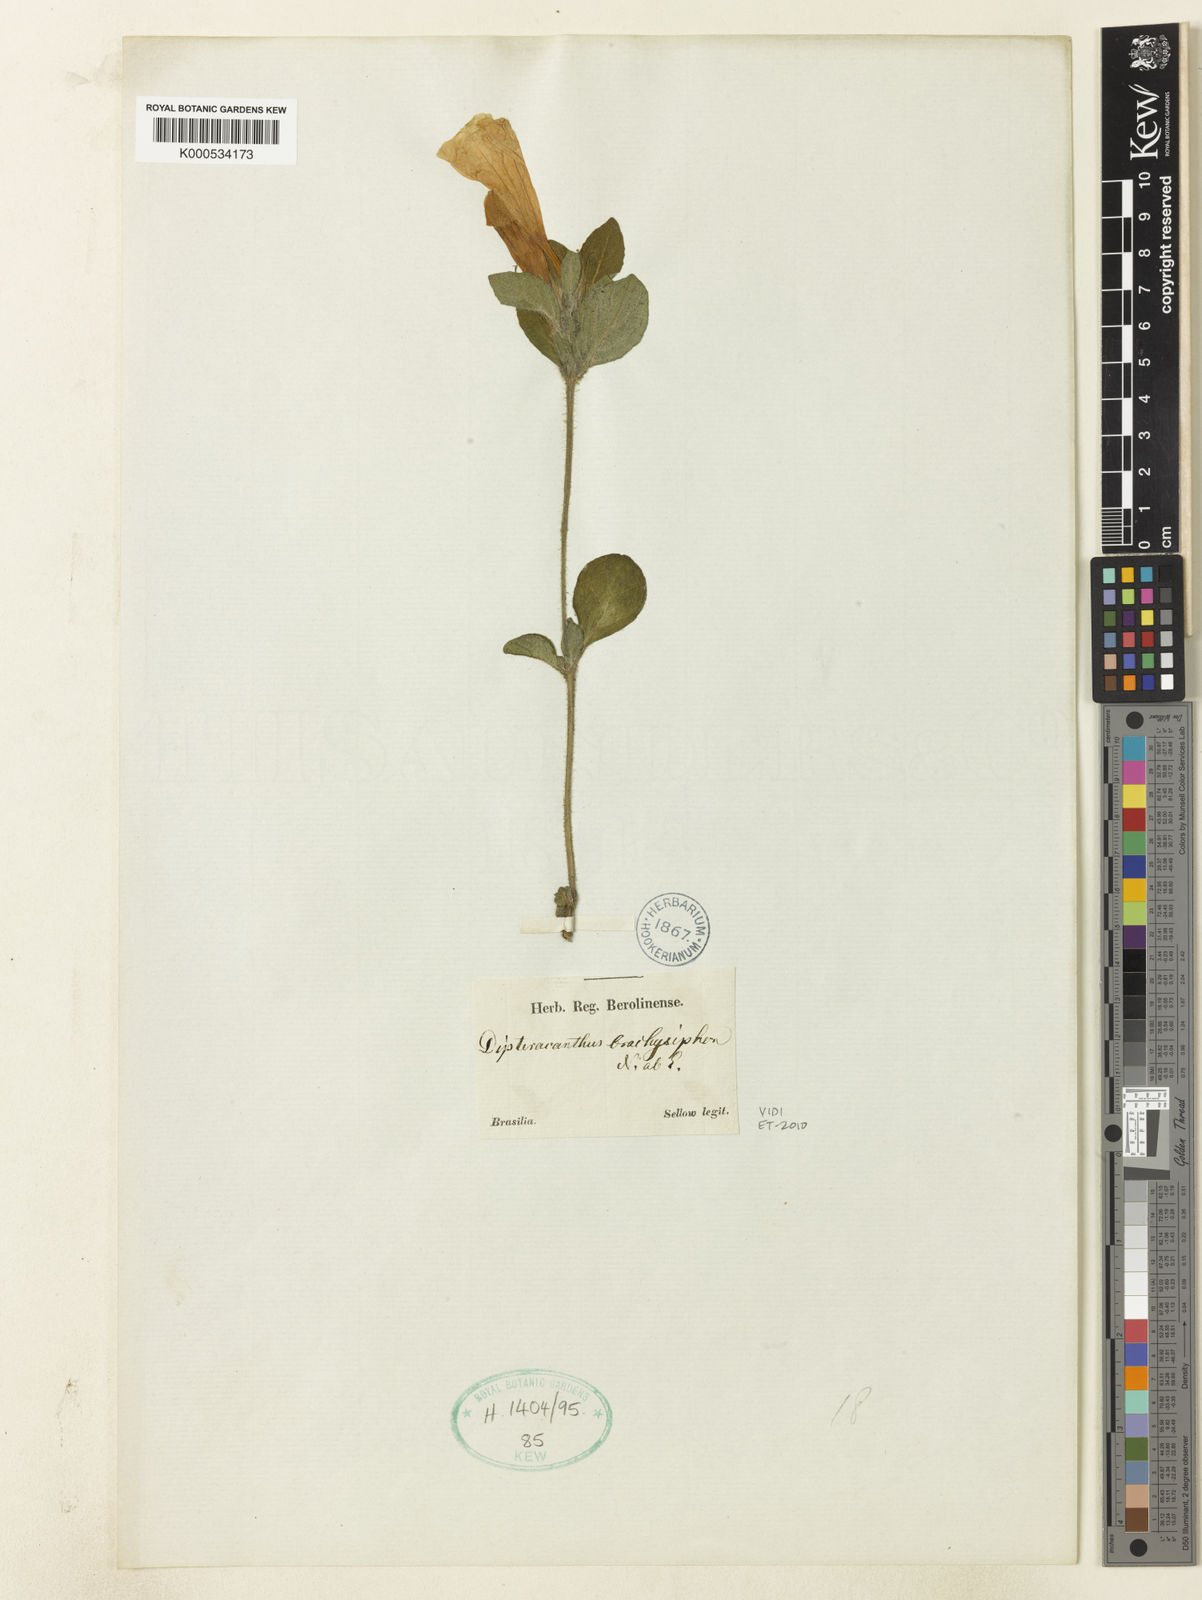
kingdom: Plantae
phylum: Tracheophyta
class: Magnoliopsida
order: Lamiales
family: Acanthaceae
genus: Ruellia
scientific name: Ruellia brachysiphon
